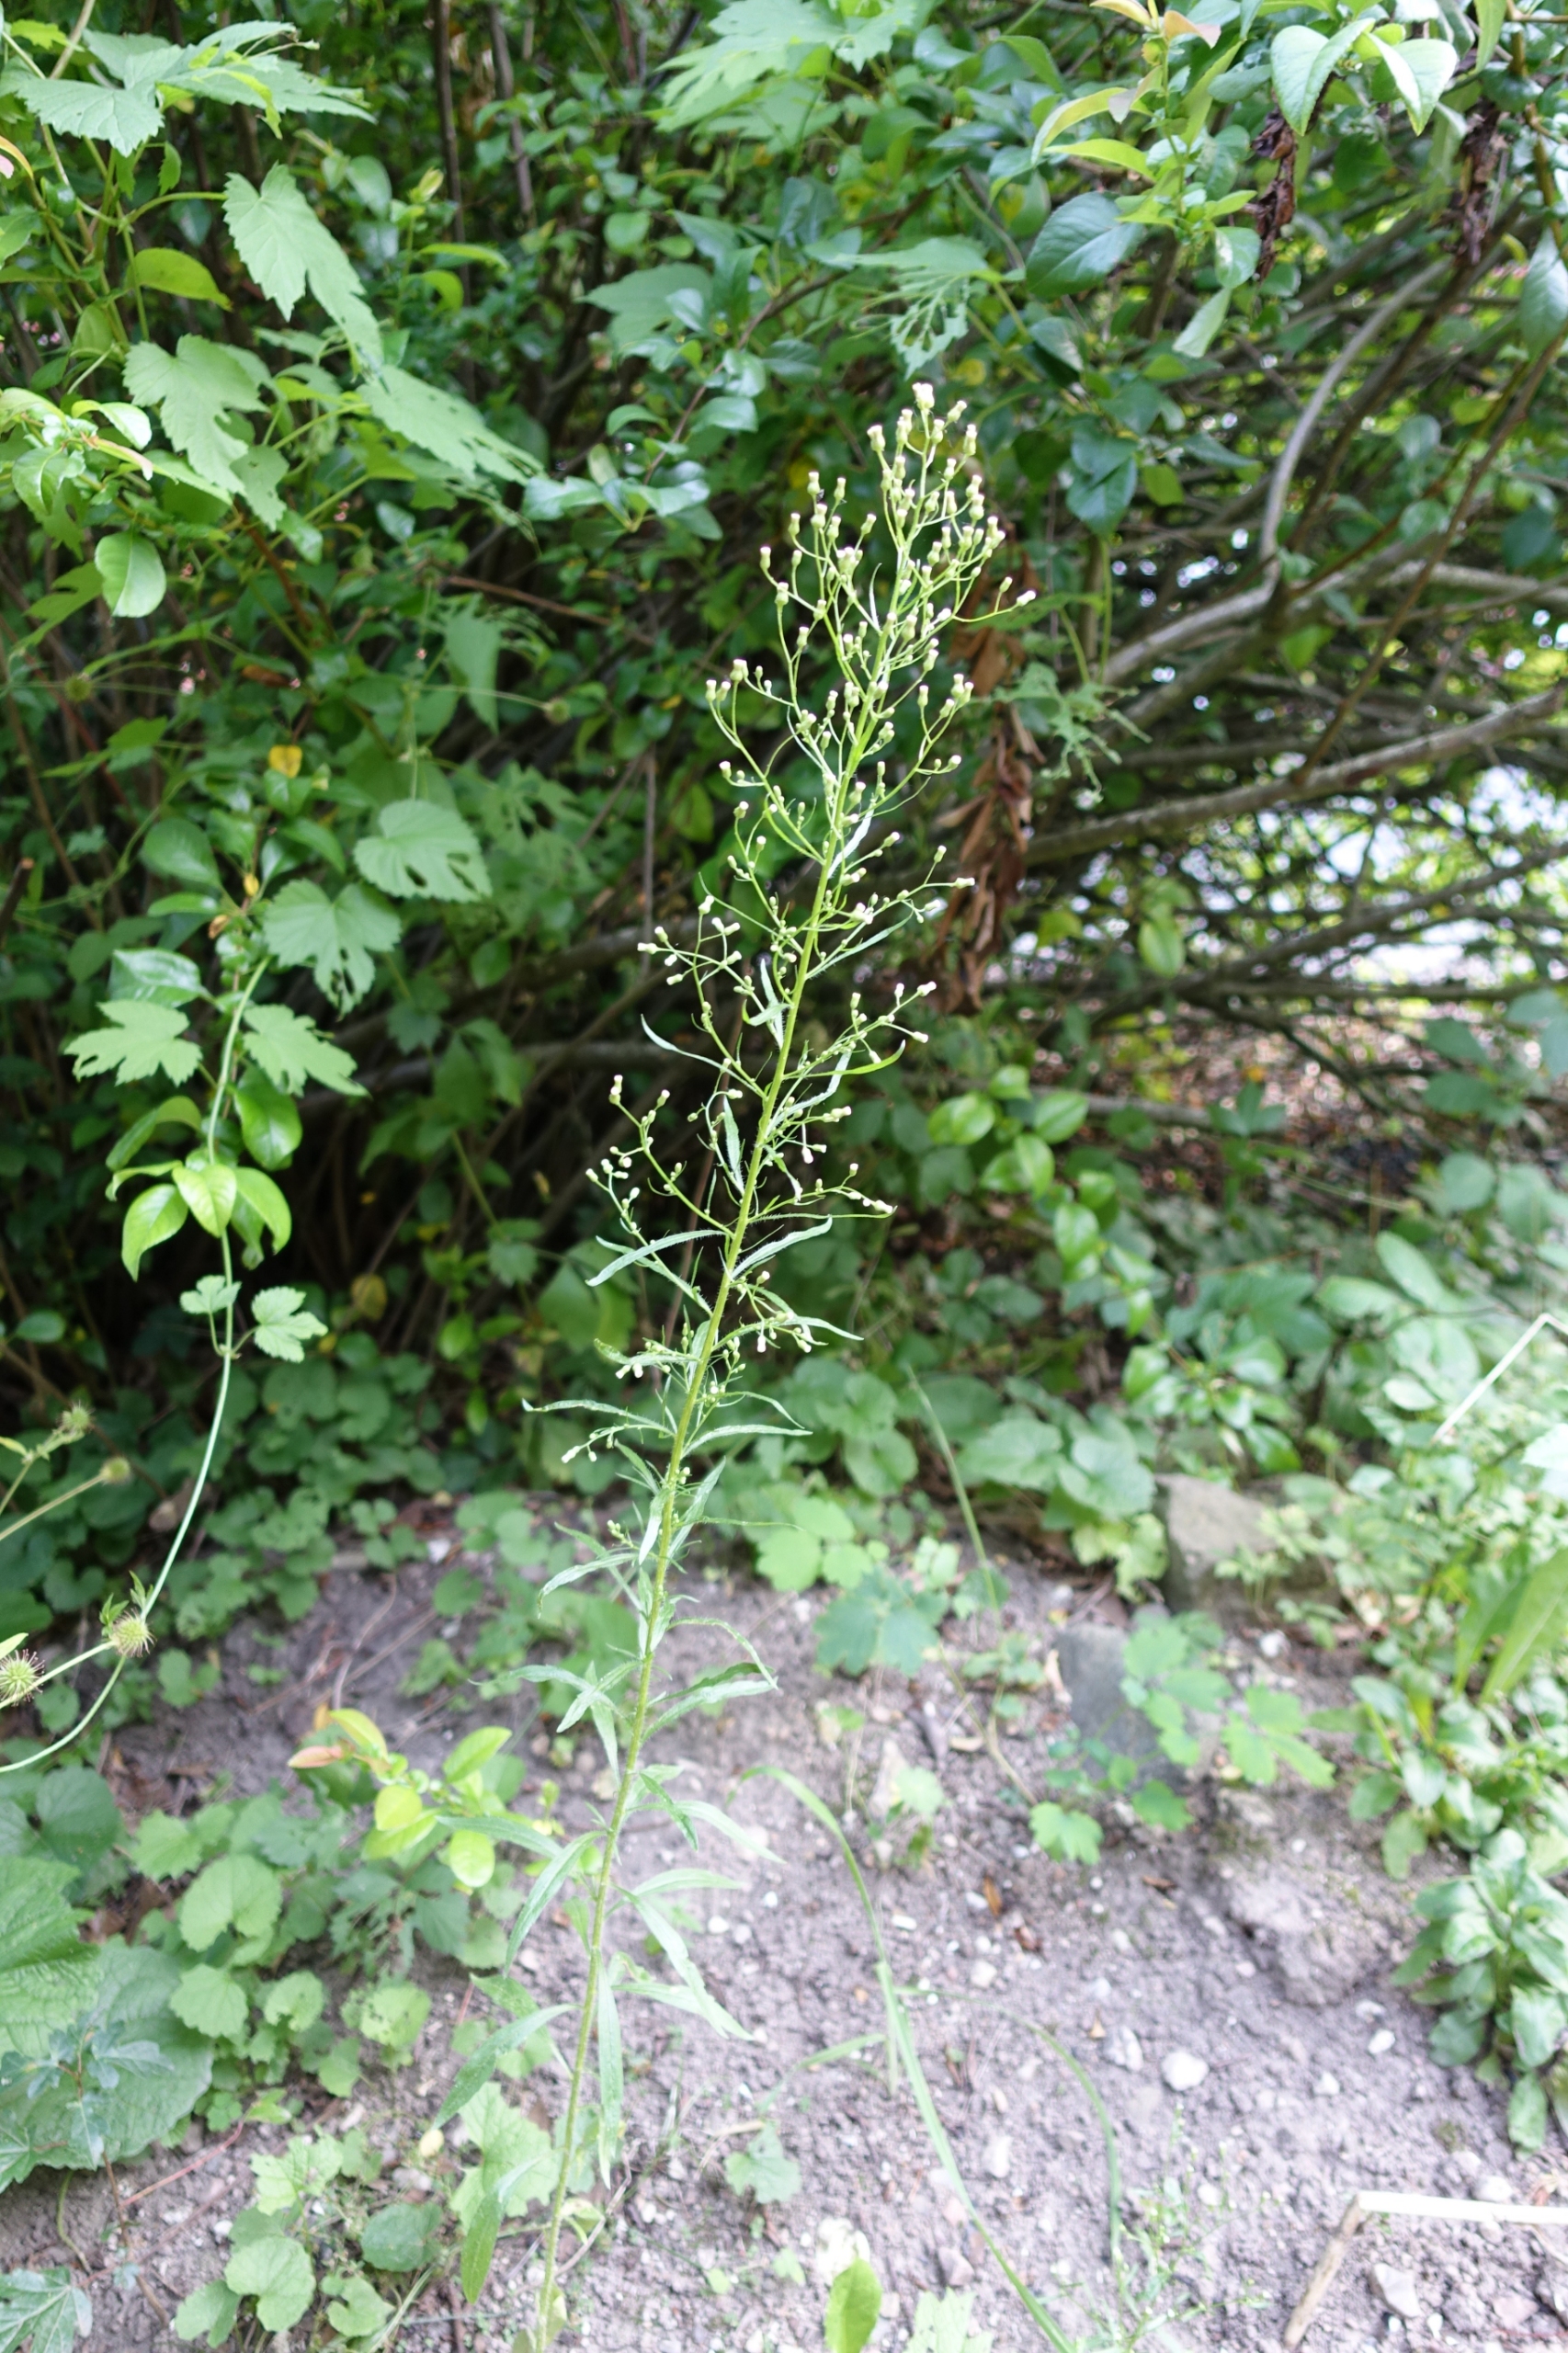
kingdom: Plantae
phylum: Tracheophyta
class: Magnoliopsida
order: Asterales
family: Asteraceae
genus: Erigeron
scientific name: Erigeron canadensis
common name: Kanadisk bakkestjerne
